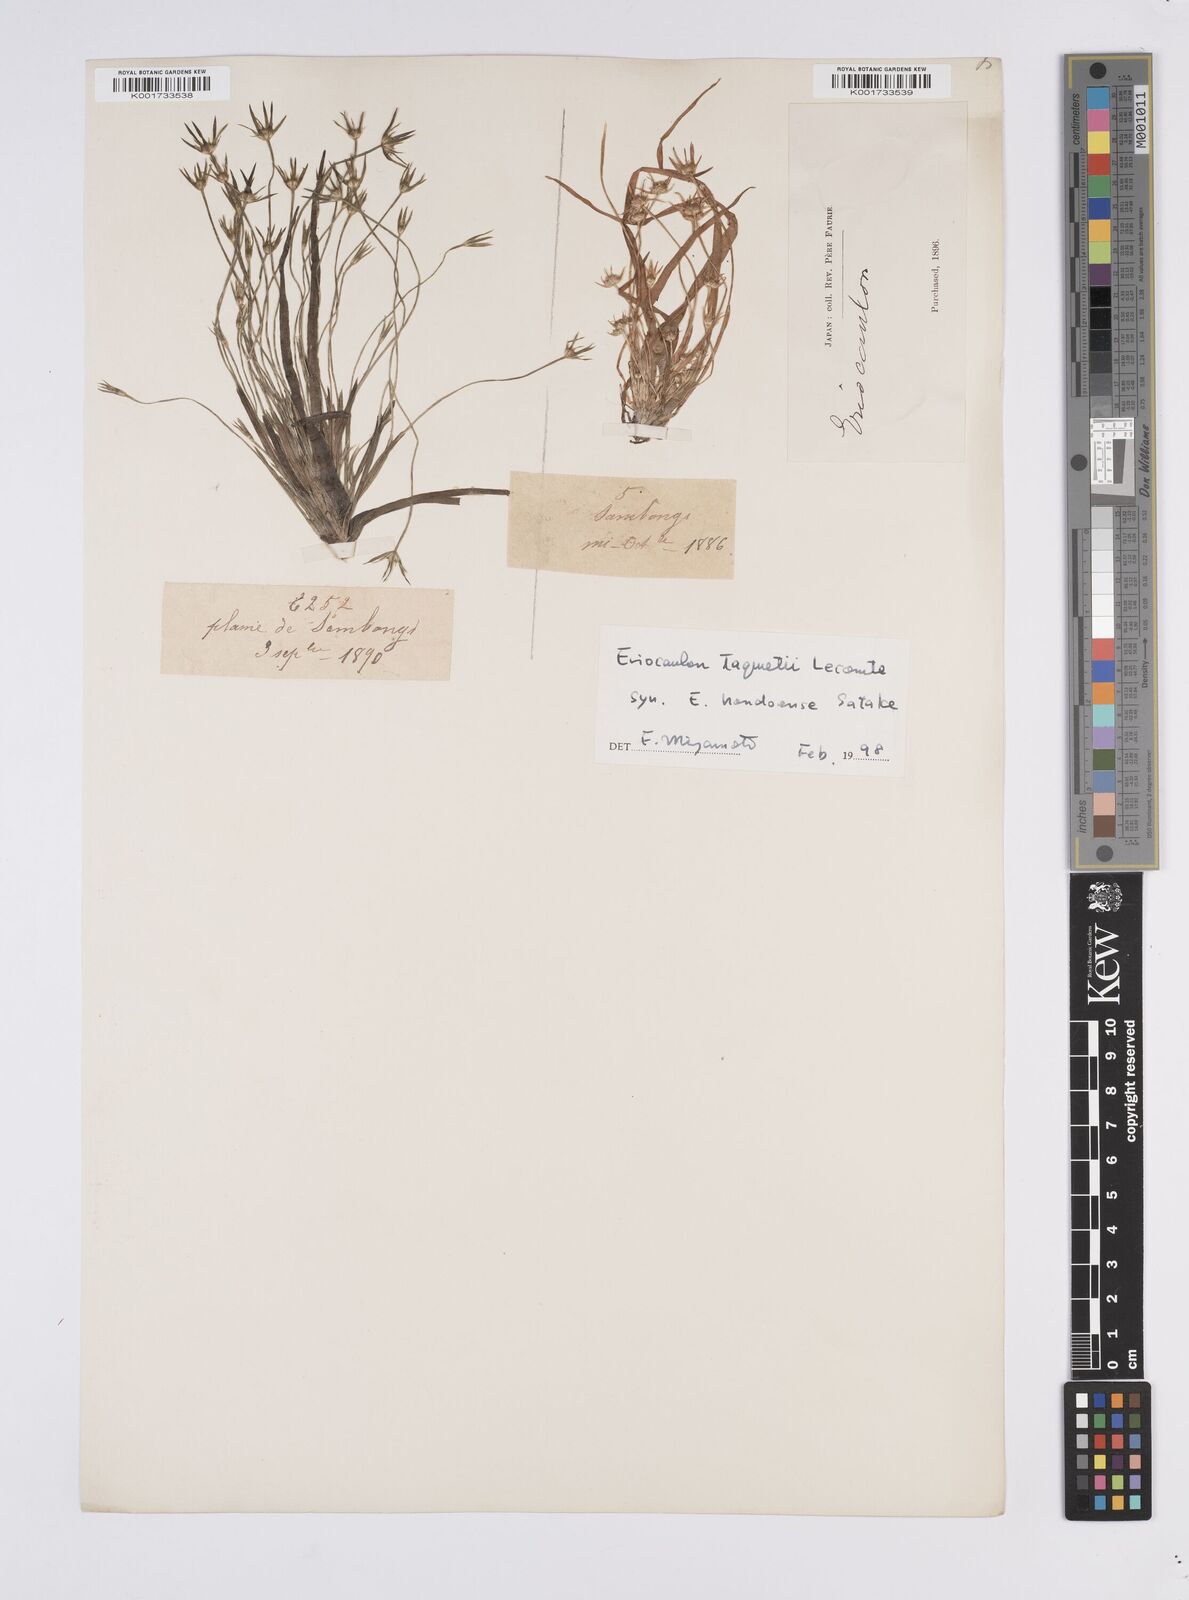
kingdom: Plantae
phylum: Tracheophyta
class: Liliopsida
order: Poales
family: Eriocaulaceae
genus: Eriocaulon
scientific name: Eriocaulon taquetii
